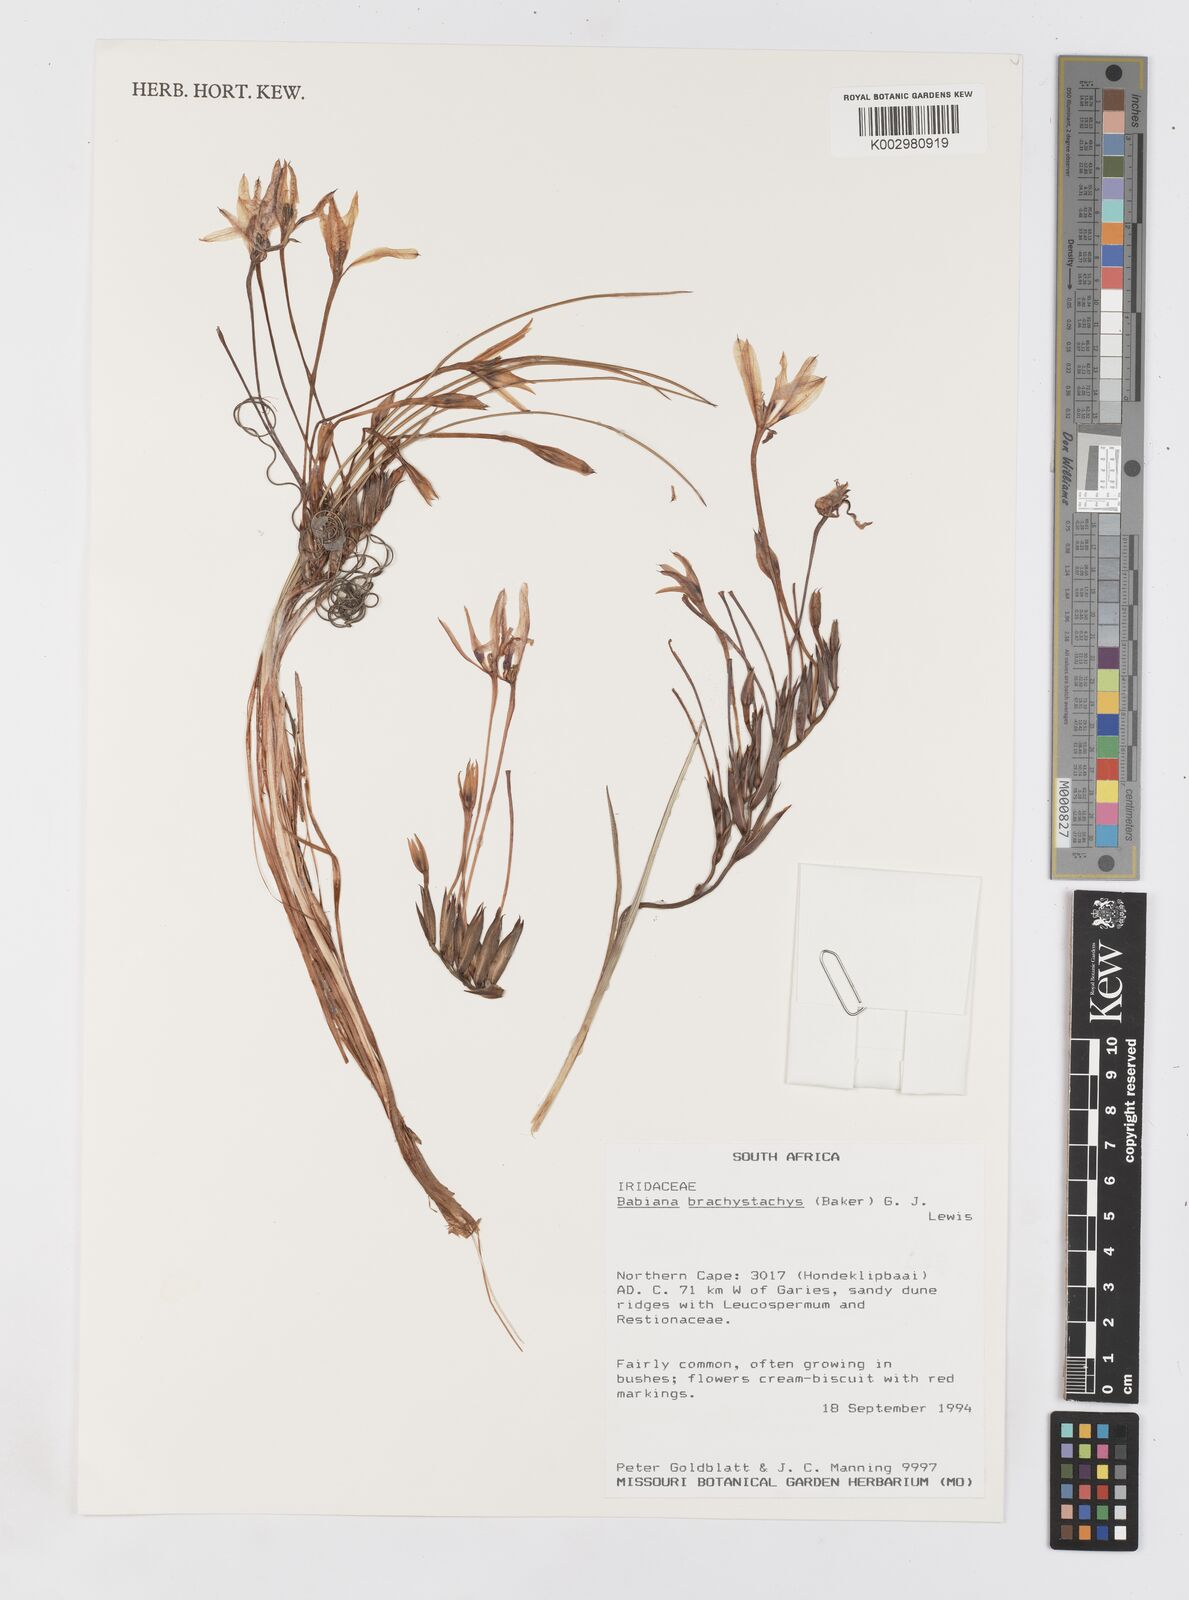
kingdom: Plantae
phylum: Tracheophyta
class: Liliopsida
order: Asparagales
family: Iridaceae
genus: Babiana
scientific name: Babiana brachystachys
